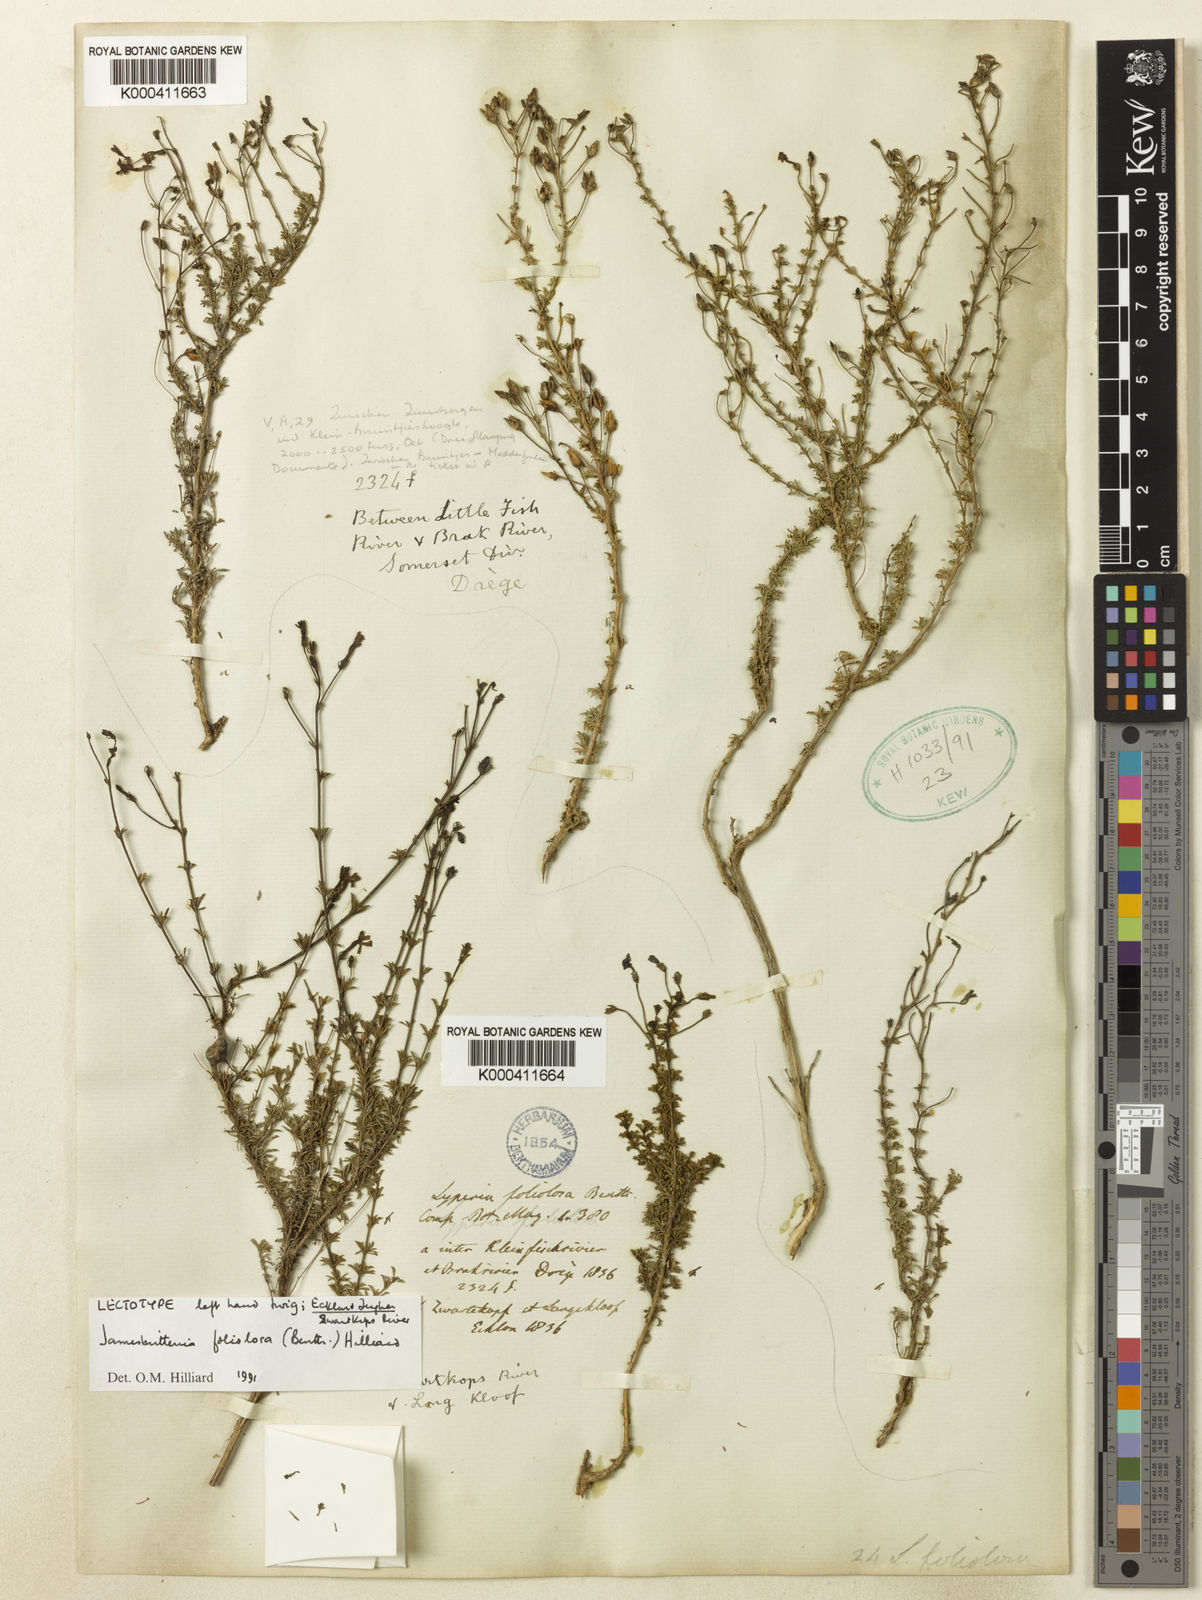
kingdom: Plantae
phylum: Tracheophyta
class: Magnoliopsida
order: Lamiales
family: Scrophulariaceae
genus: Jamesbrittenia
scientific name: Jamesbrittenia foliolosa
